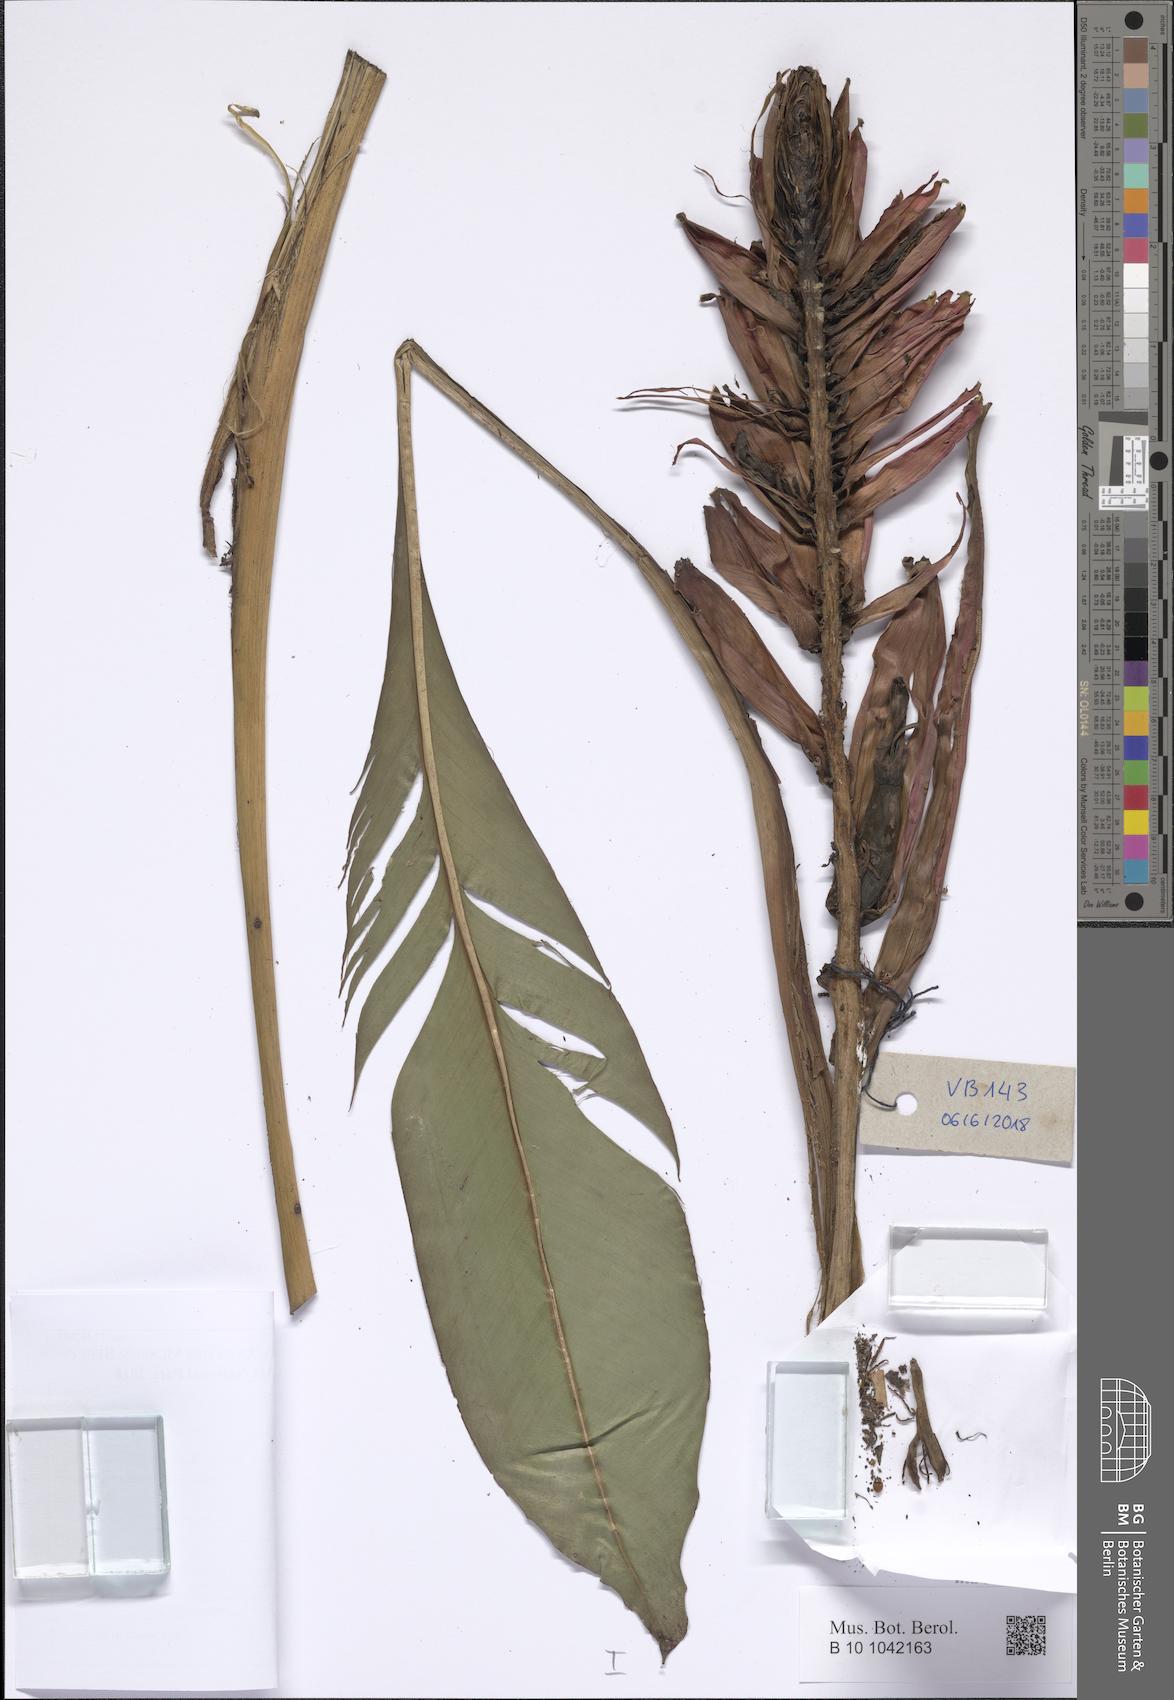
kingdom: Plantae
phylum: Tracheophyta
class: Liliopsida
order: Zingiberales
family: Musaceae
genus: Musa
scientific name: Musa coccinea
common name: Scarlet banana
